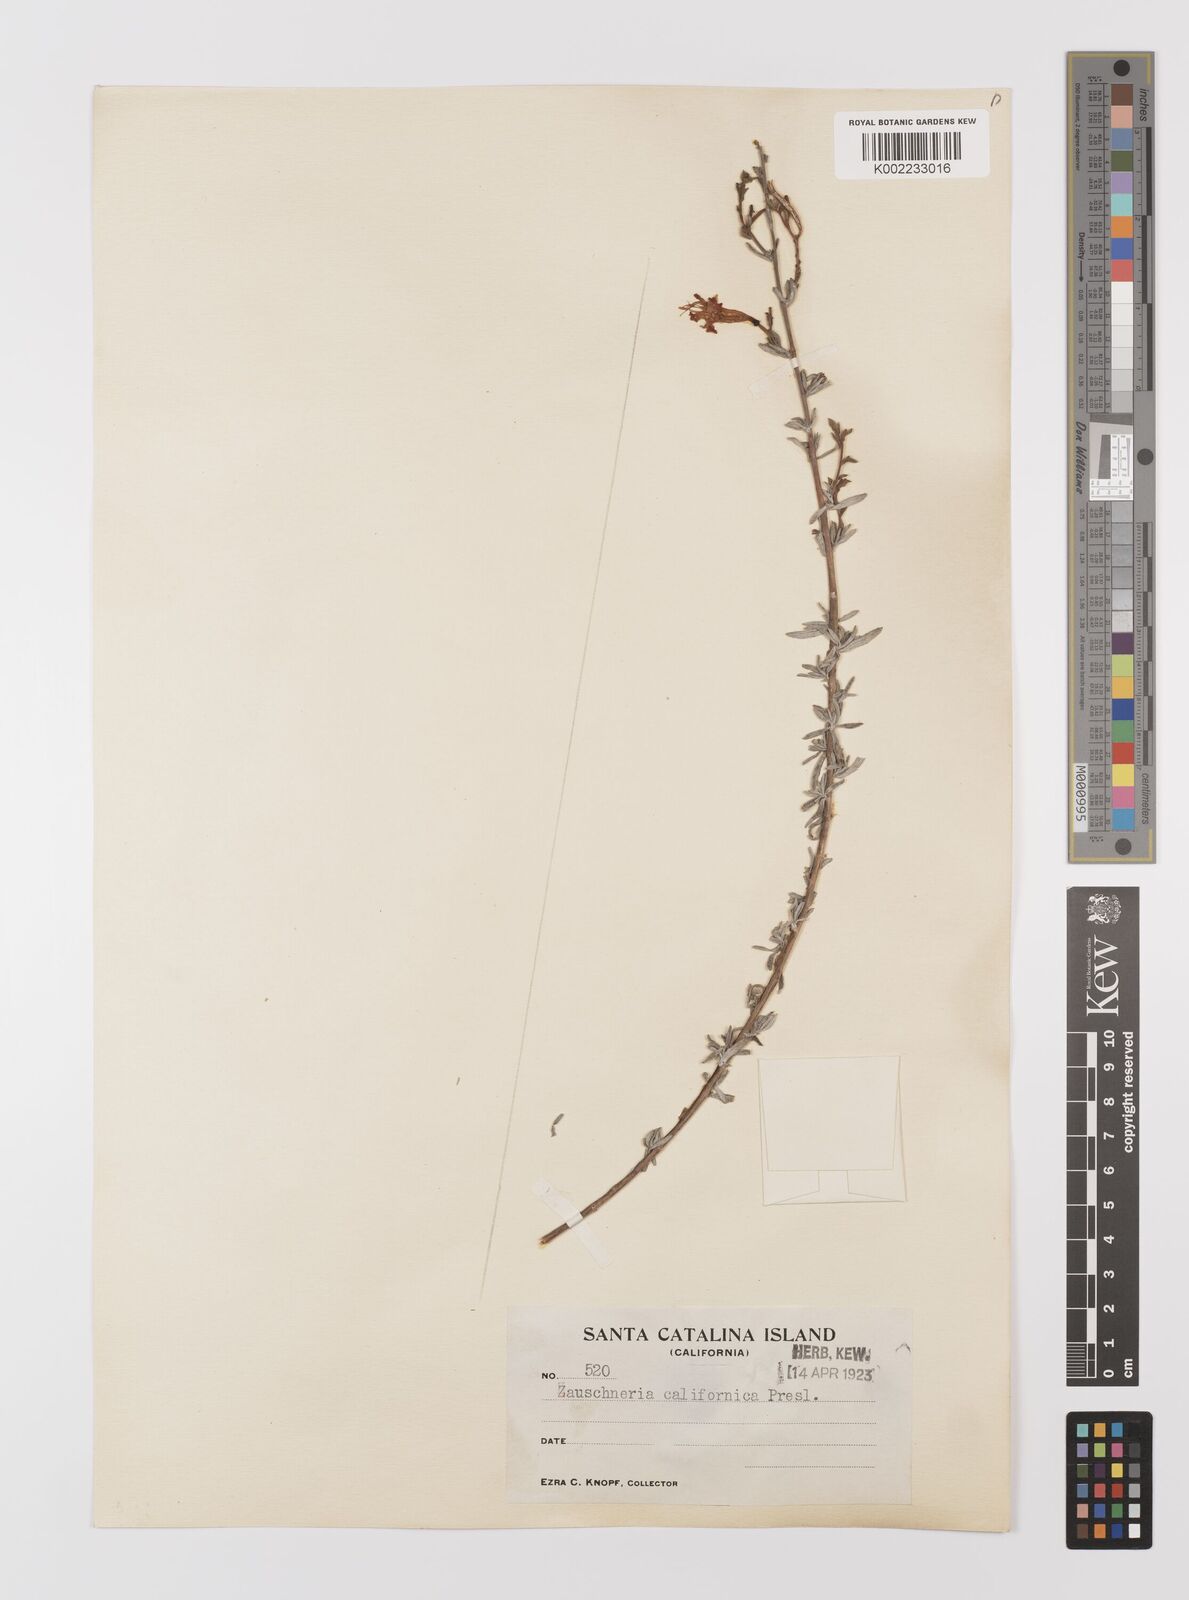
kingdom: Plantae
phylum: Tracheophyta
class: Magnoliopsida
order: Myrtales
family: Onagraceae
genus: Epilobium
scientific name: Epilobium canum
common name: California-fuchsia
